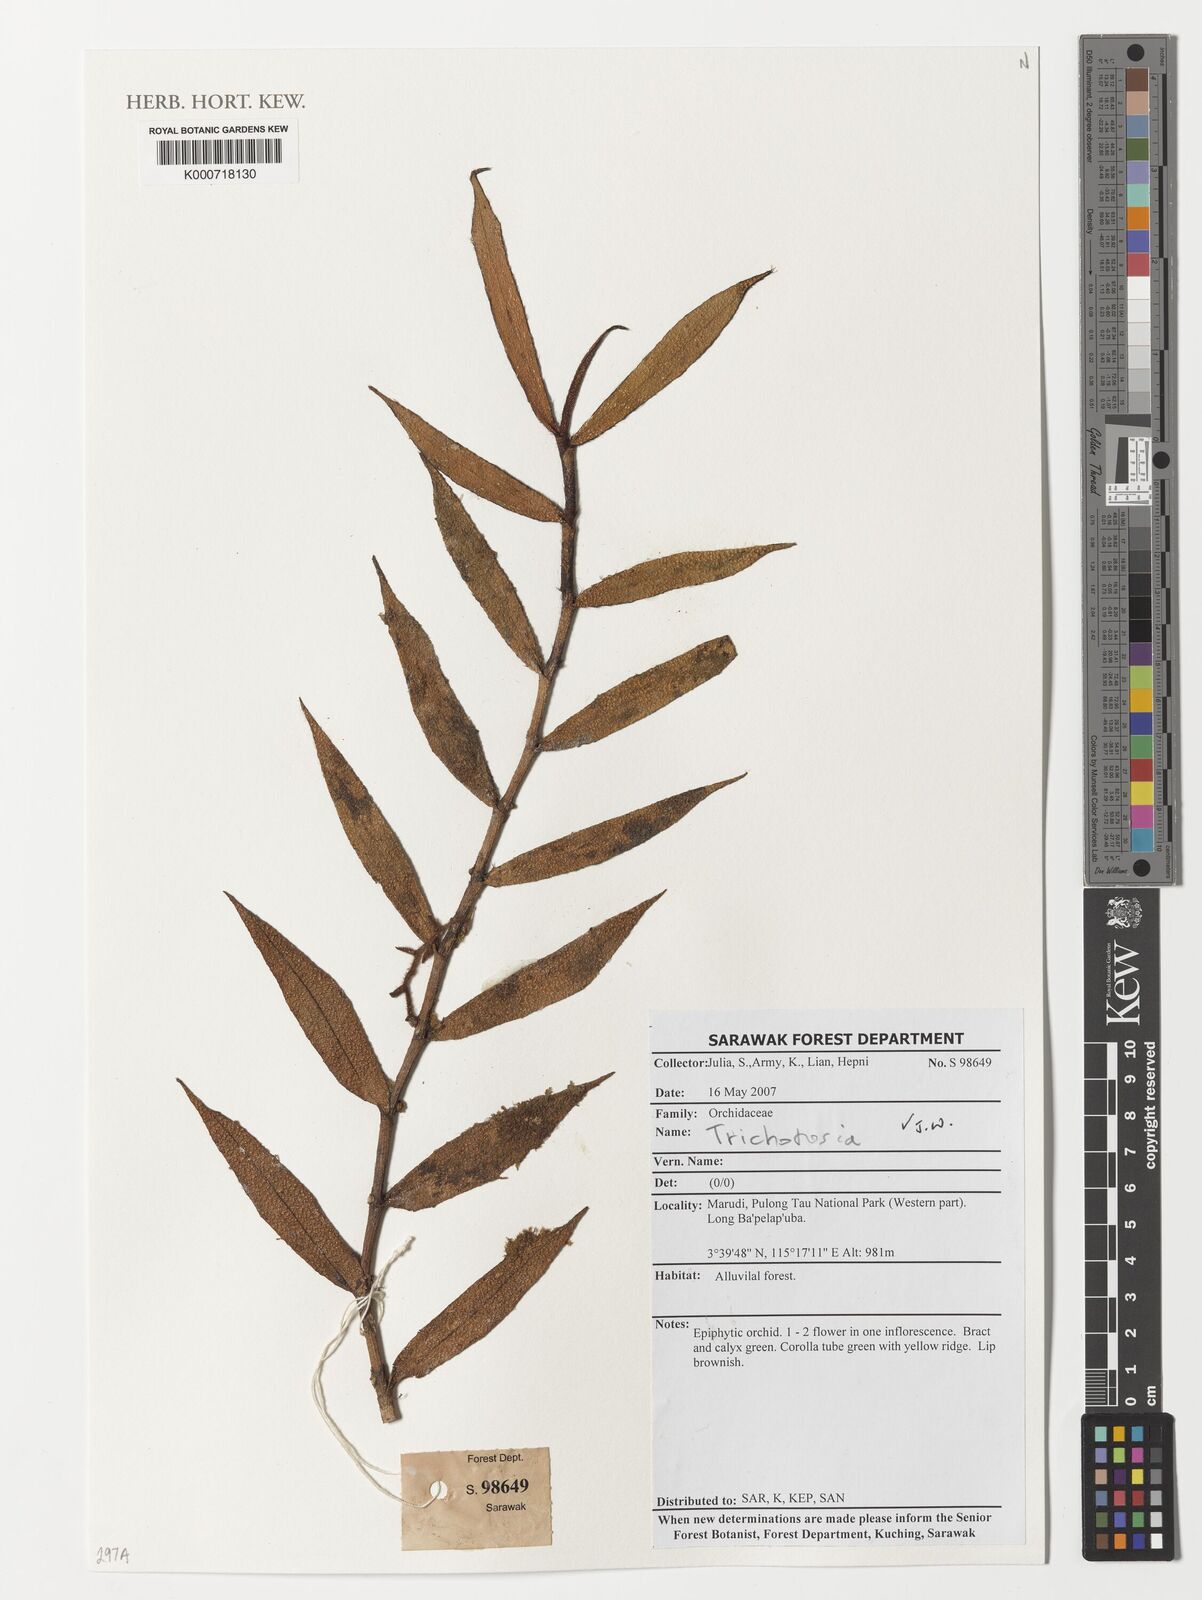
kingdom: Plantae
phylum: Tracheophyta
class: Liliopsida
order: Asparagales
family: Orchidaceae
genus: Trichotosia
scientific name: Trichotosia
